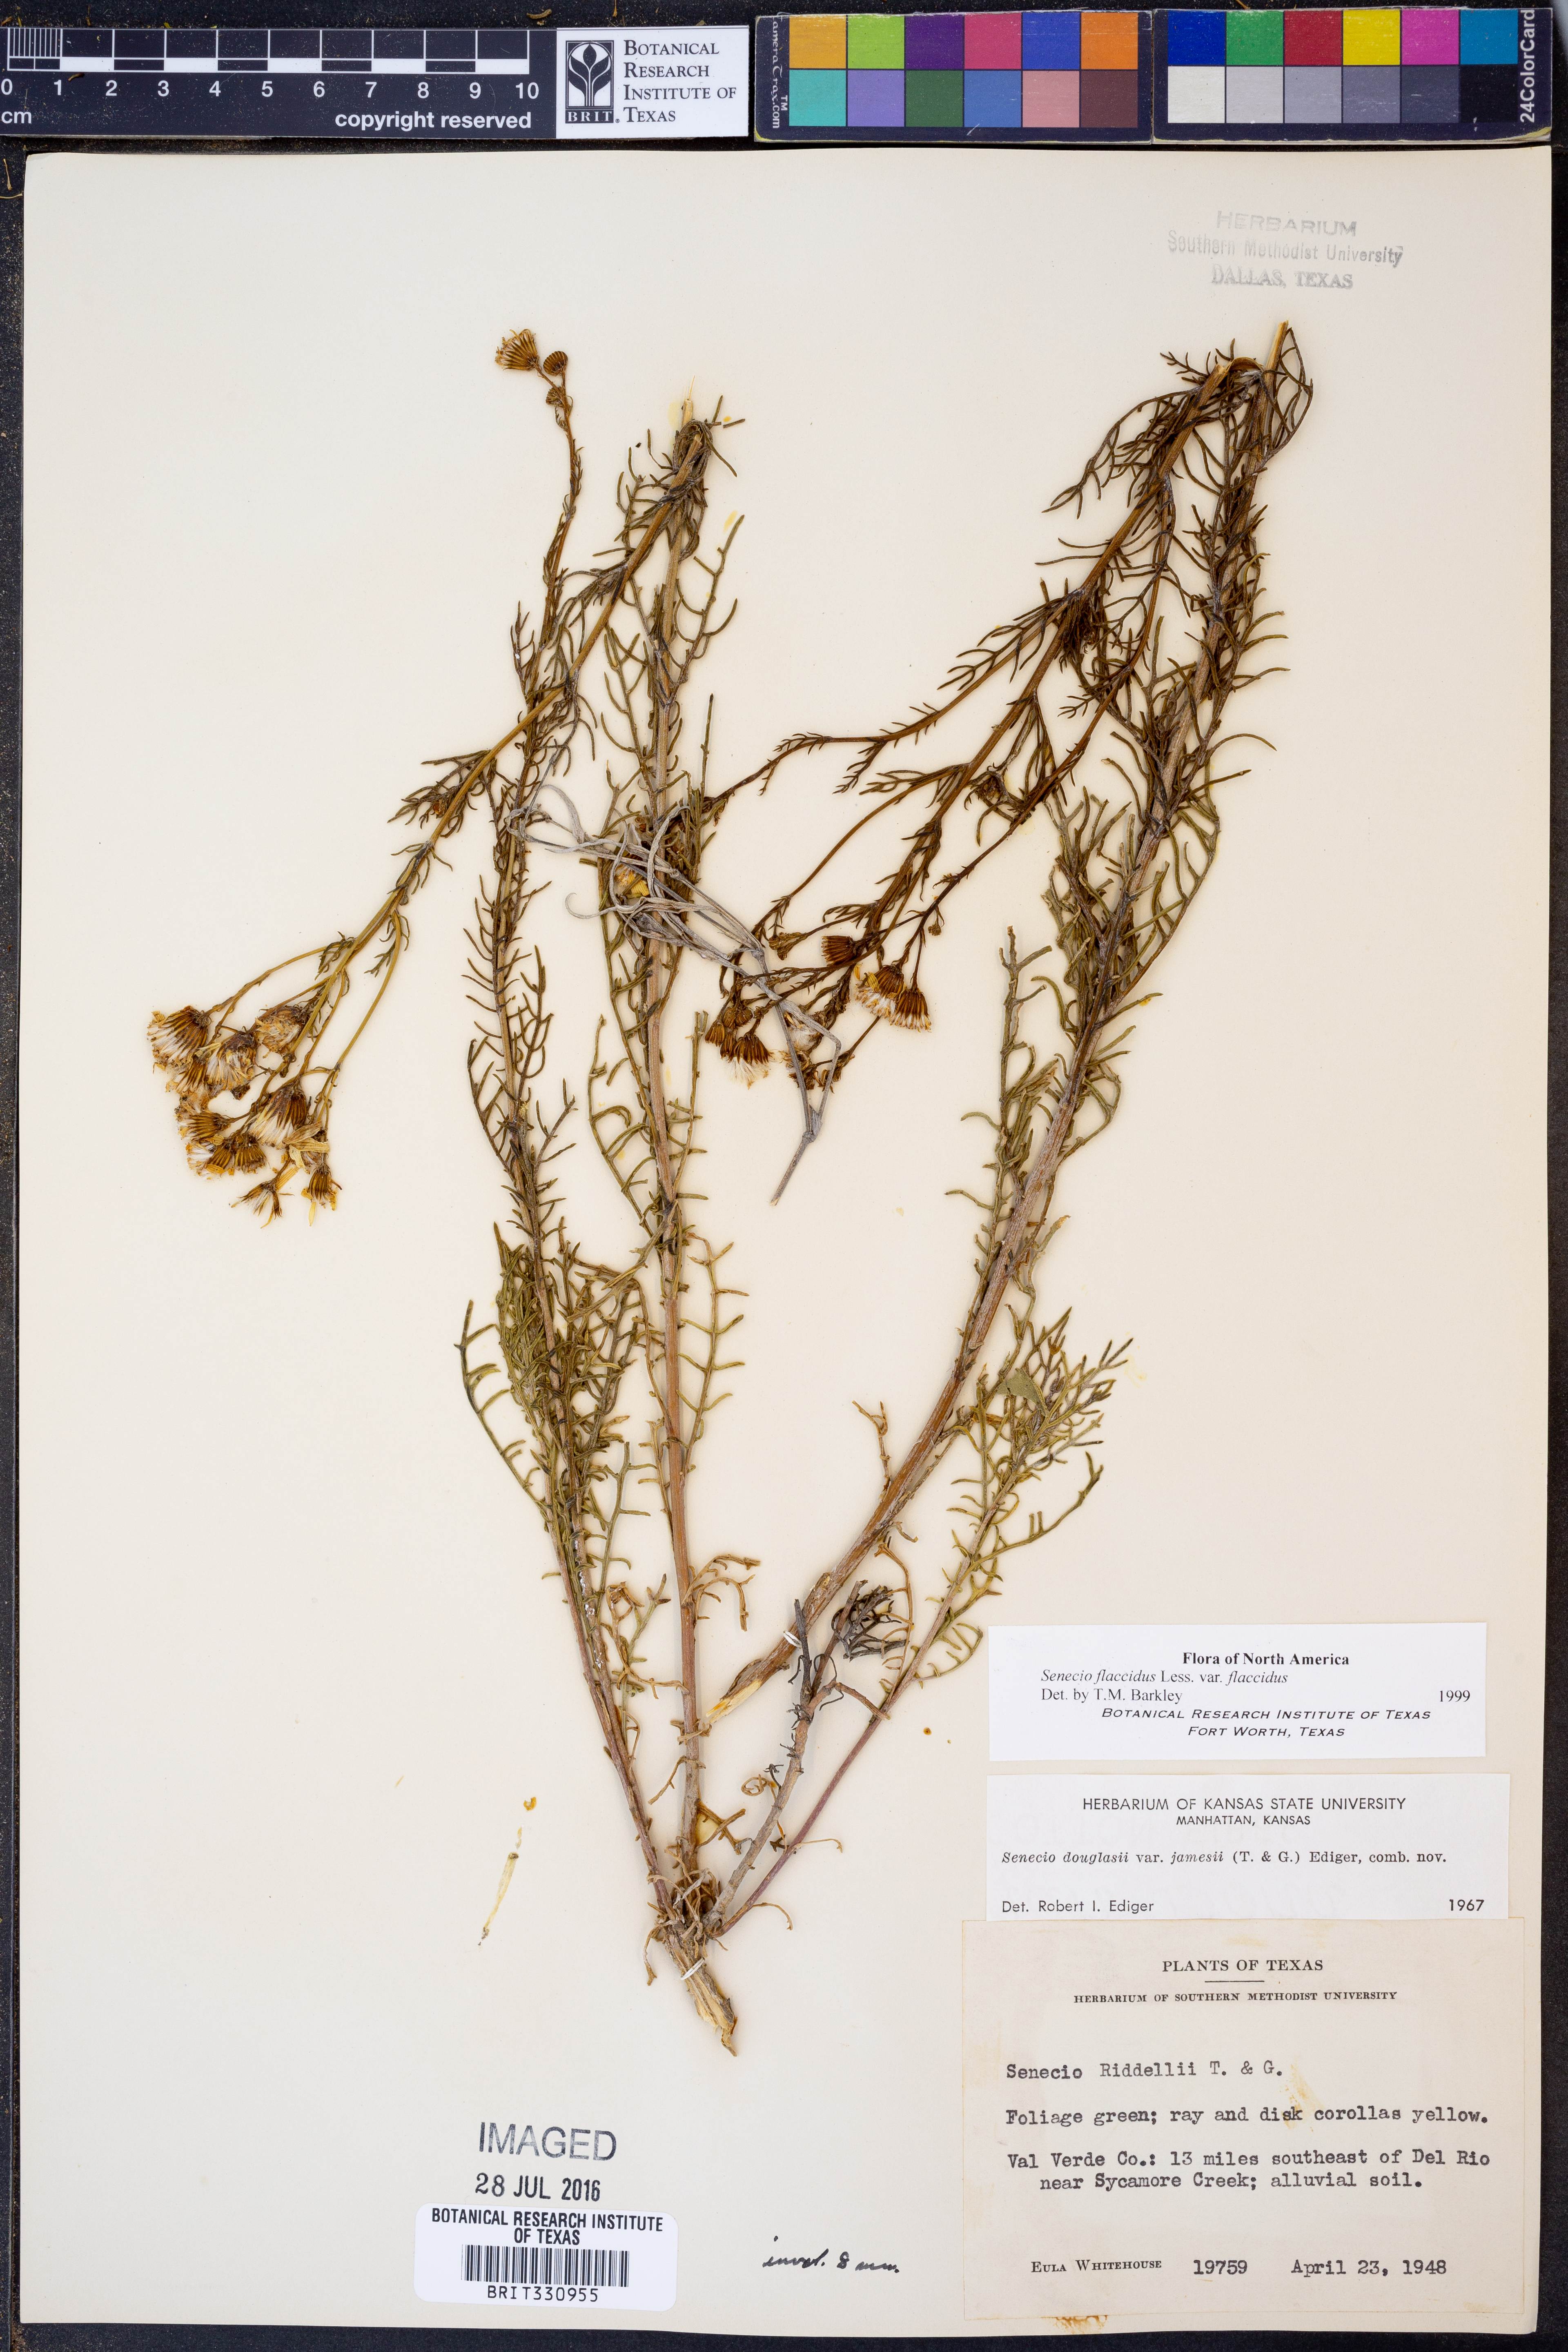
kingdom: Plantae
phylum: Tracheophyta
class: Magnoliopsida
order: Asterales
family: Asteraceae
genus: Senecio
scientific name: Senecio flaccidus
